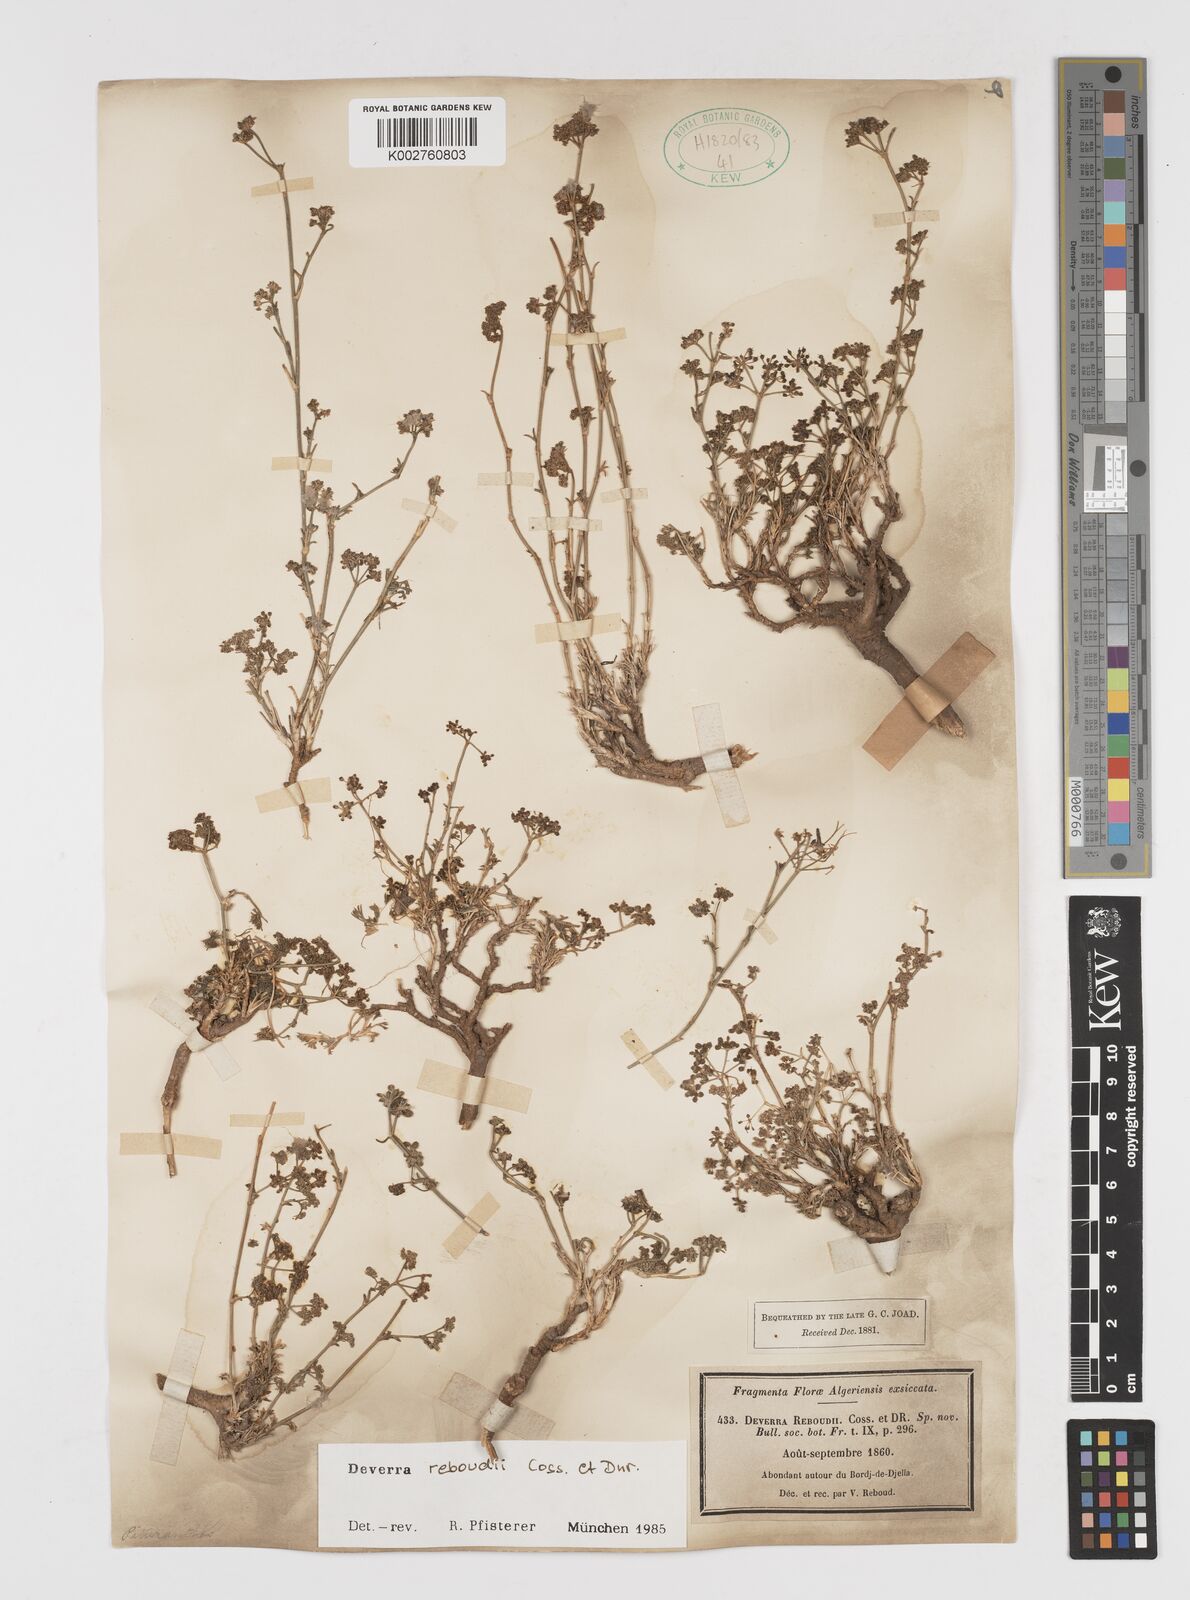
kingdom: Plantae
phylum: Tracheophyta
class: Magnoliopsida
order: Apiales
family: Apiaceae
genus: Deverra
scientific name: Deverra reboudii
